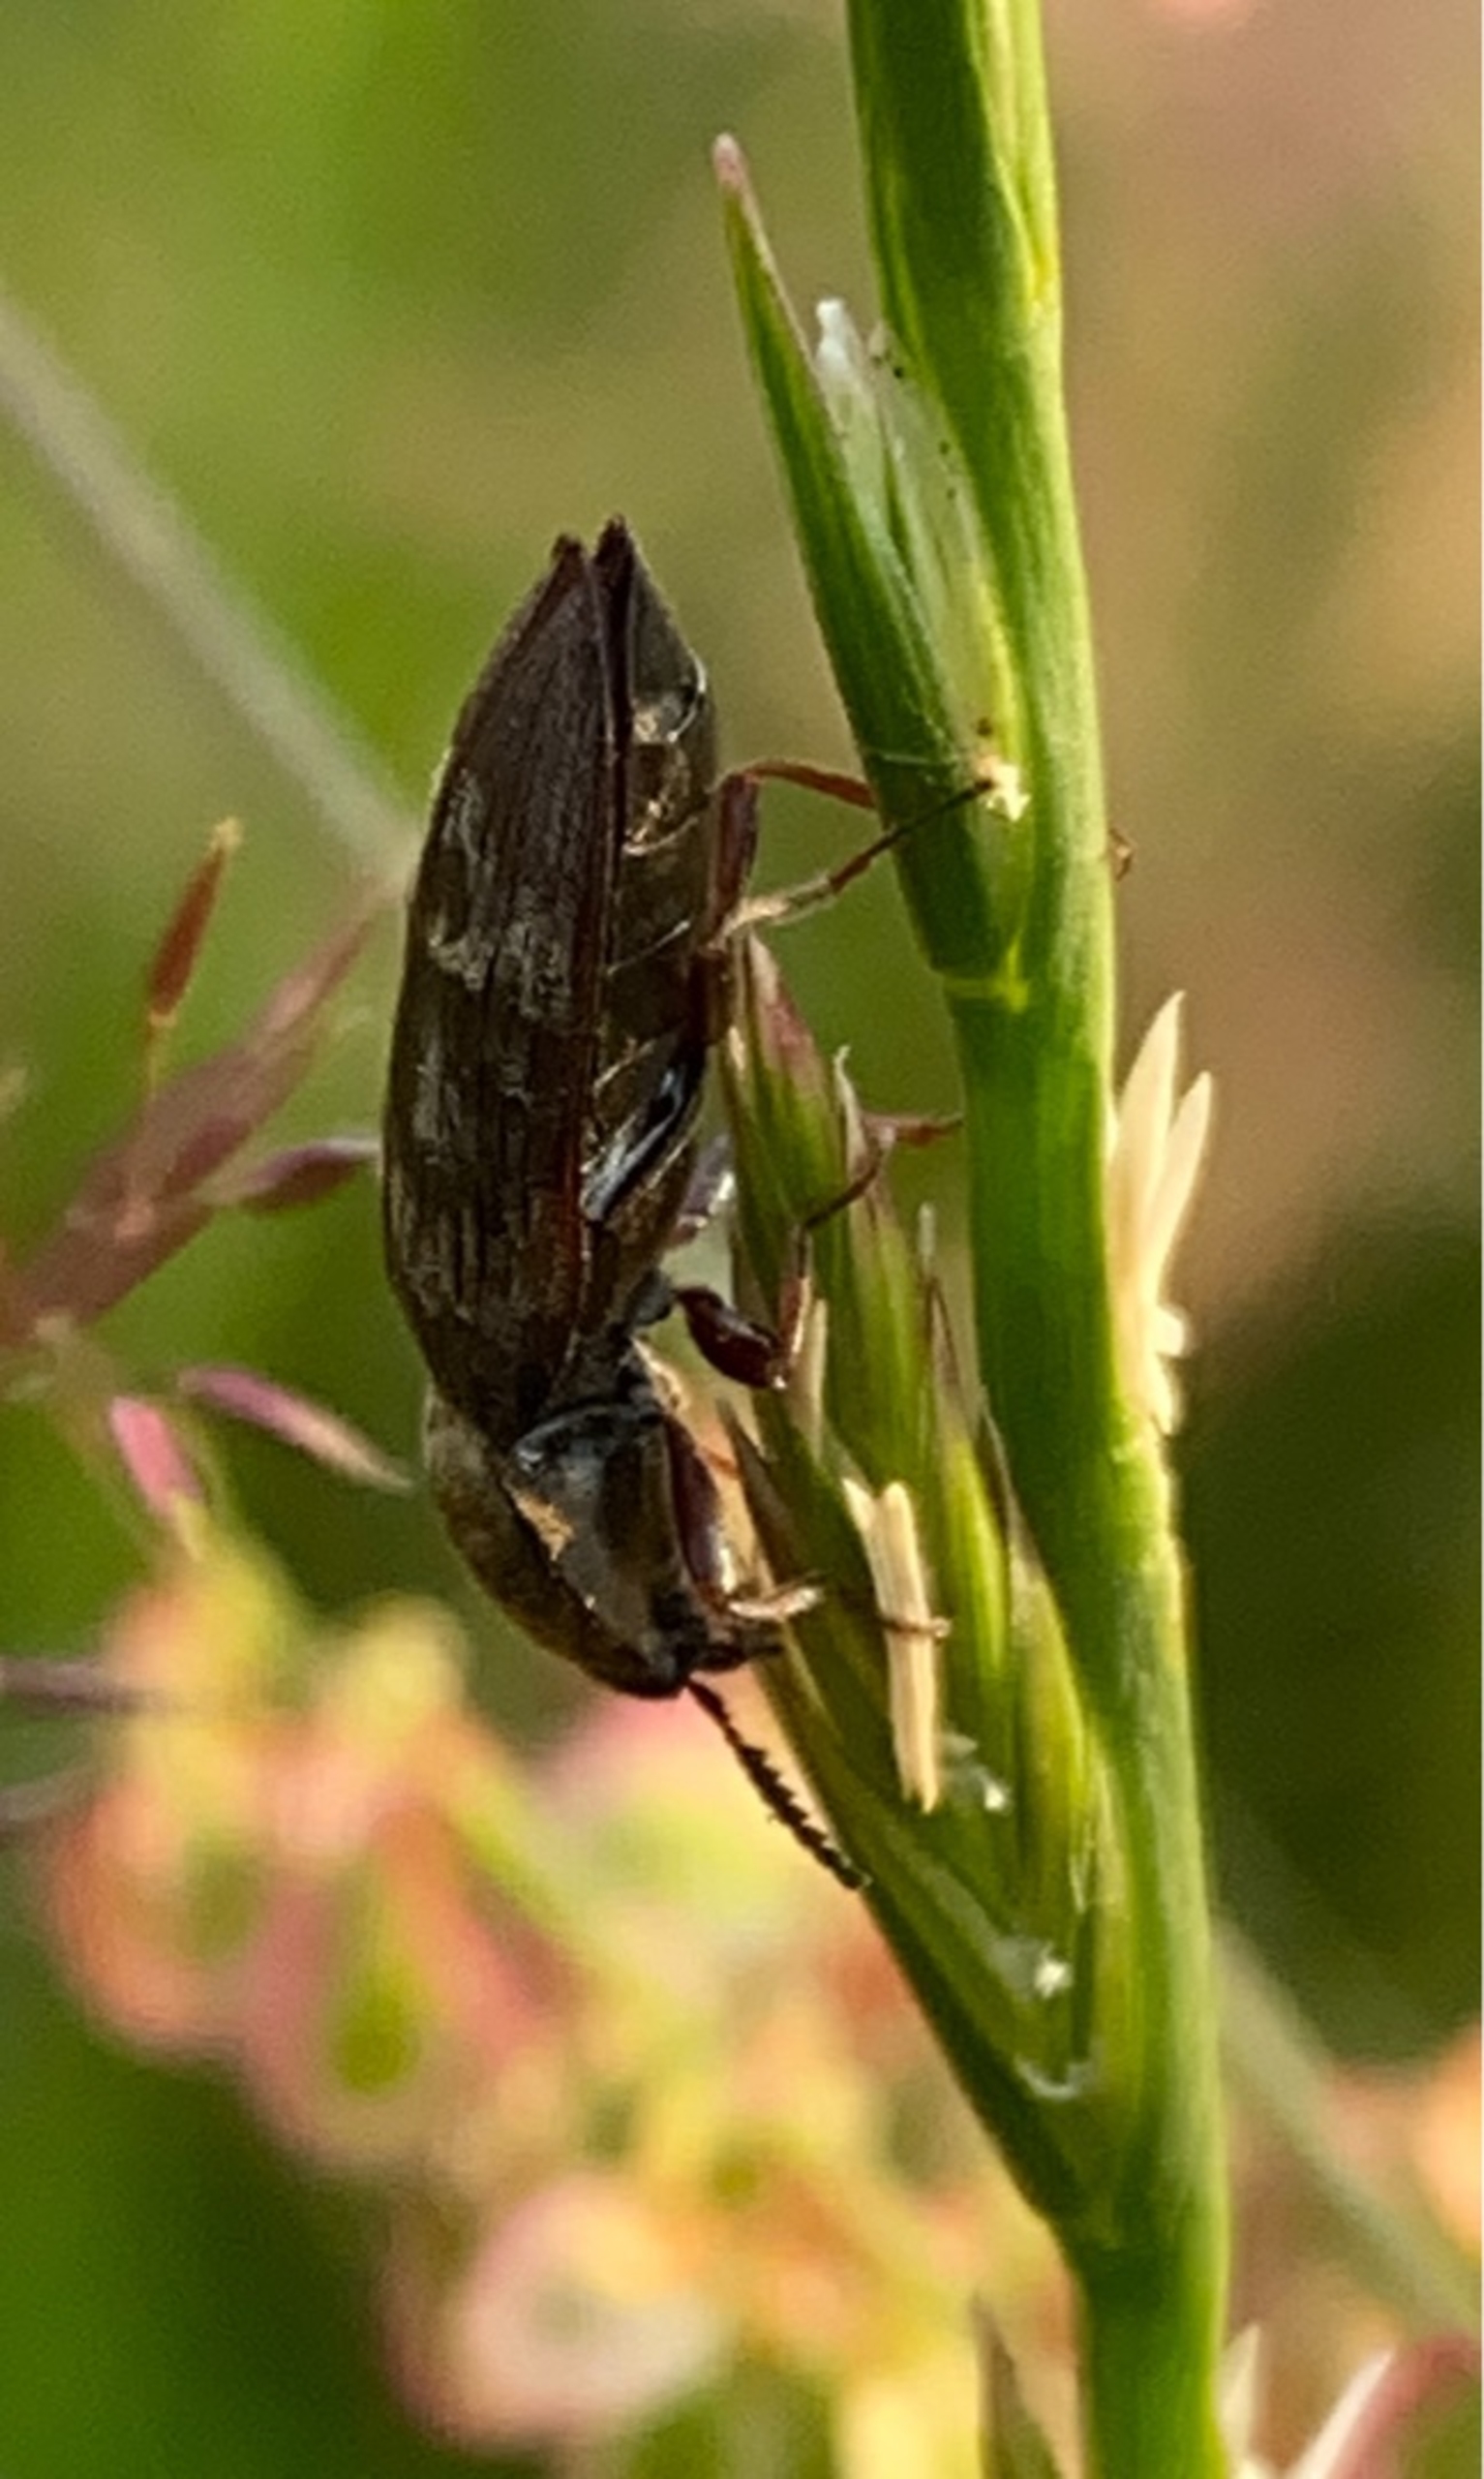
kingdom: Animalia
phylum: Arthropoda
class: Insecta
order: Coleoptera
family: Elateridae
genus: Prosternon
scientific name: Prosternon tessellatum
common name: Silkeglinsende jordsmælder
